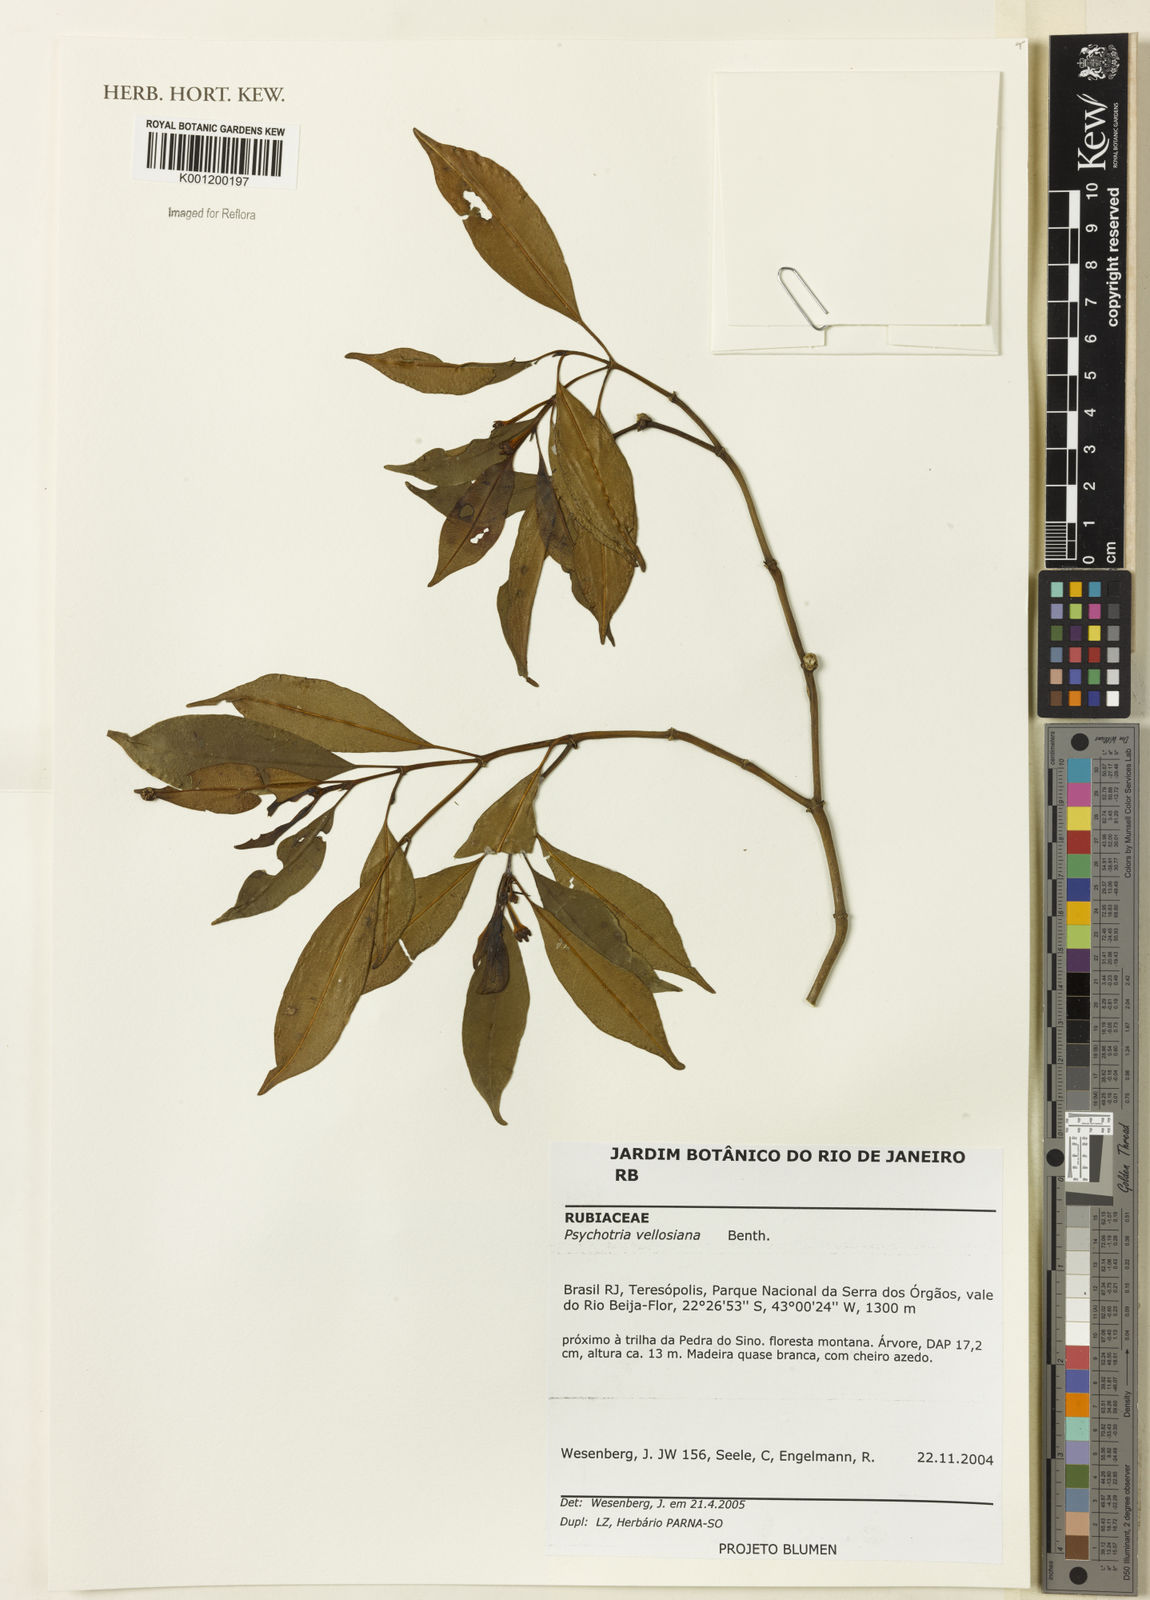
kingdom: Plantae
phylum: Tracheophyta
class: Magnoliopsida
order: Gentianales
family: Rubiaceae
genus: Palicourea
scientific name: Palicourea sessilis
